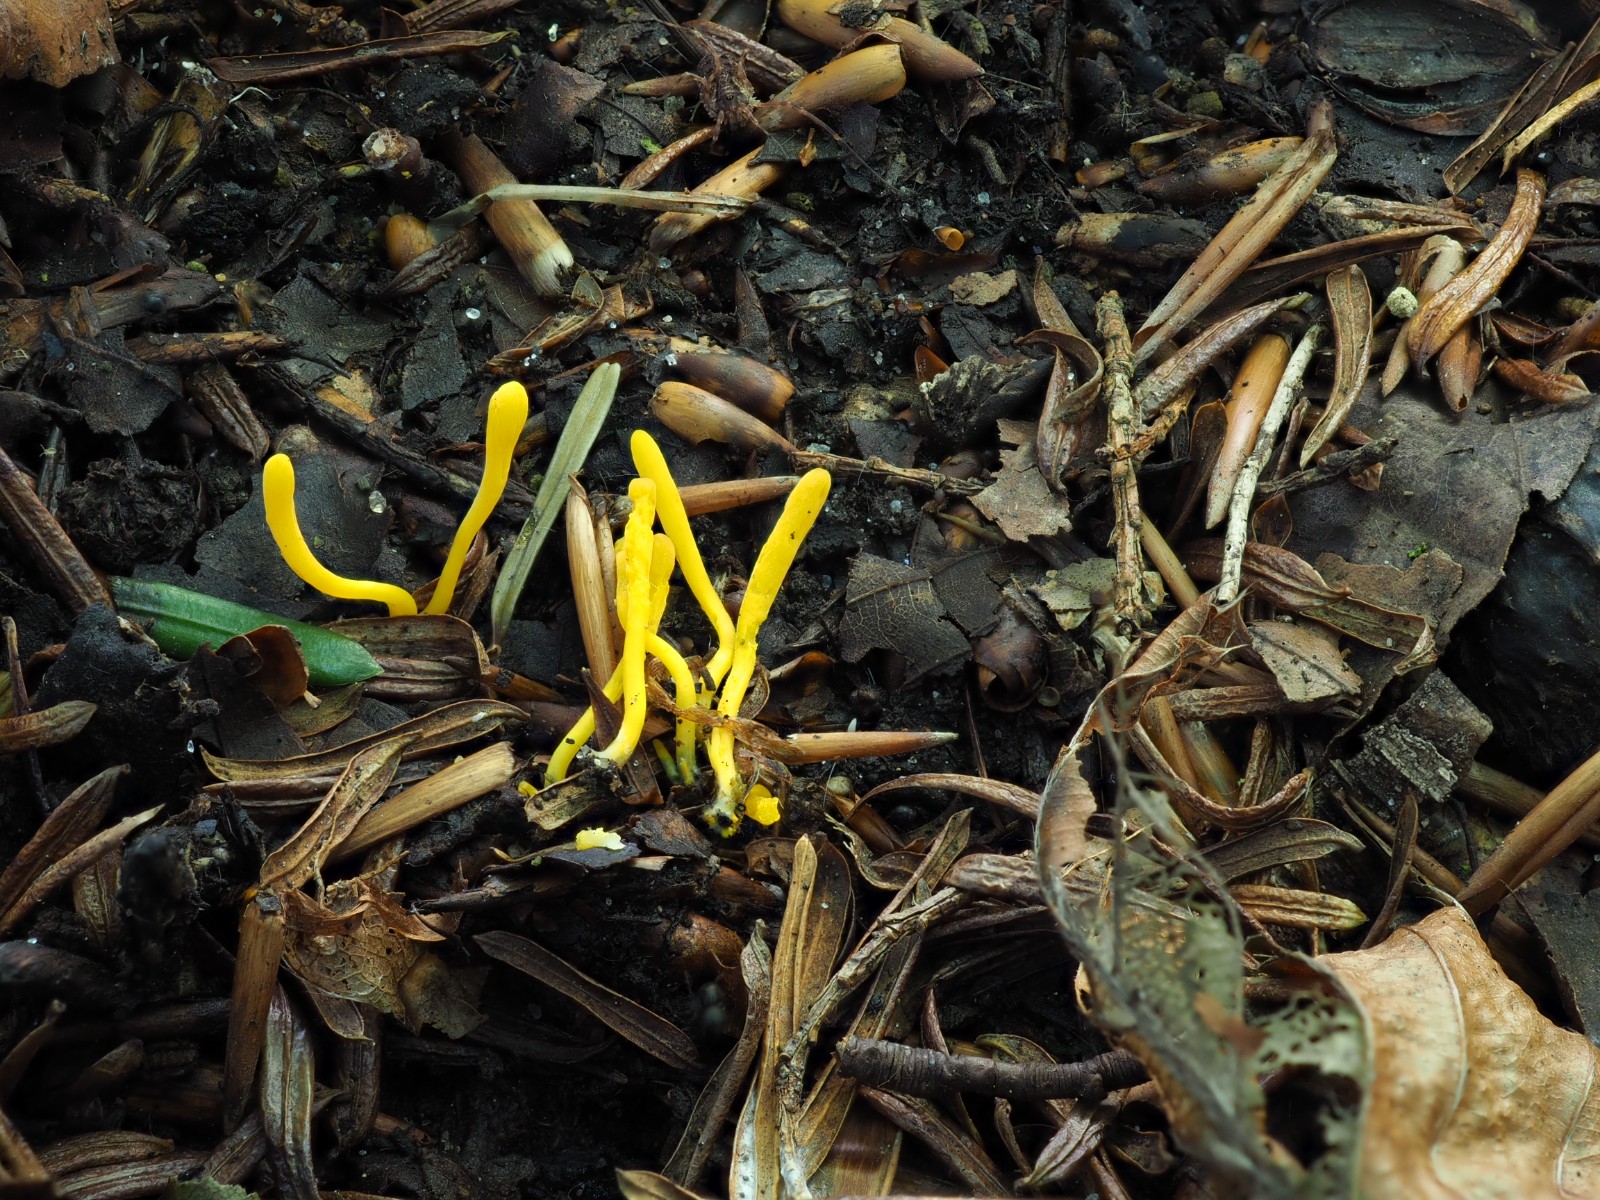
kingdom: Fungi
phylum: Basidiomycota
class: Agaricomycetes
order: Agaricales
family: Clavariaceae
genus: Clavulinopsis
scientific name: Clavulinopsis helvola
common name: orangegul køllesvamp
